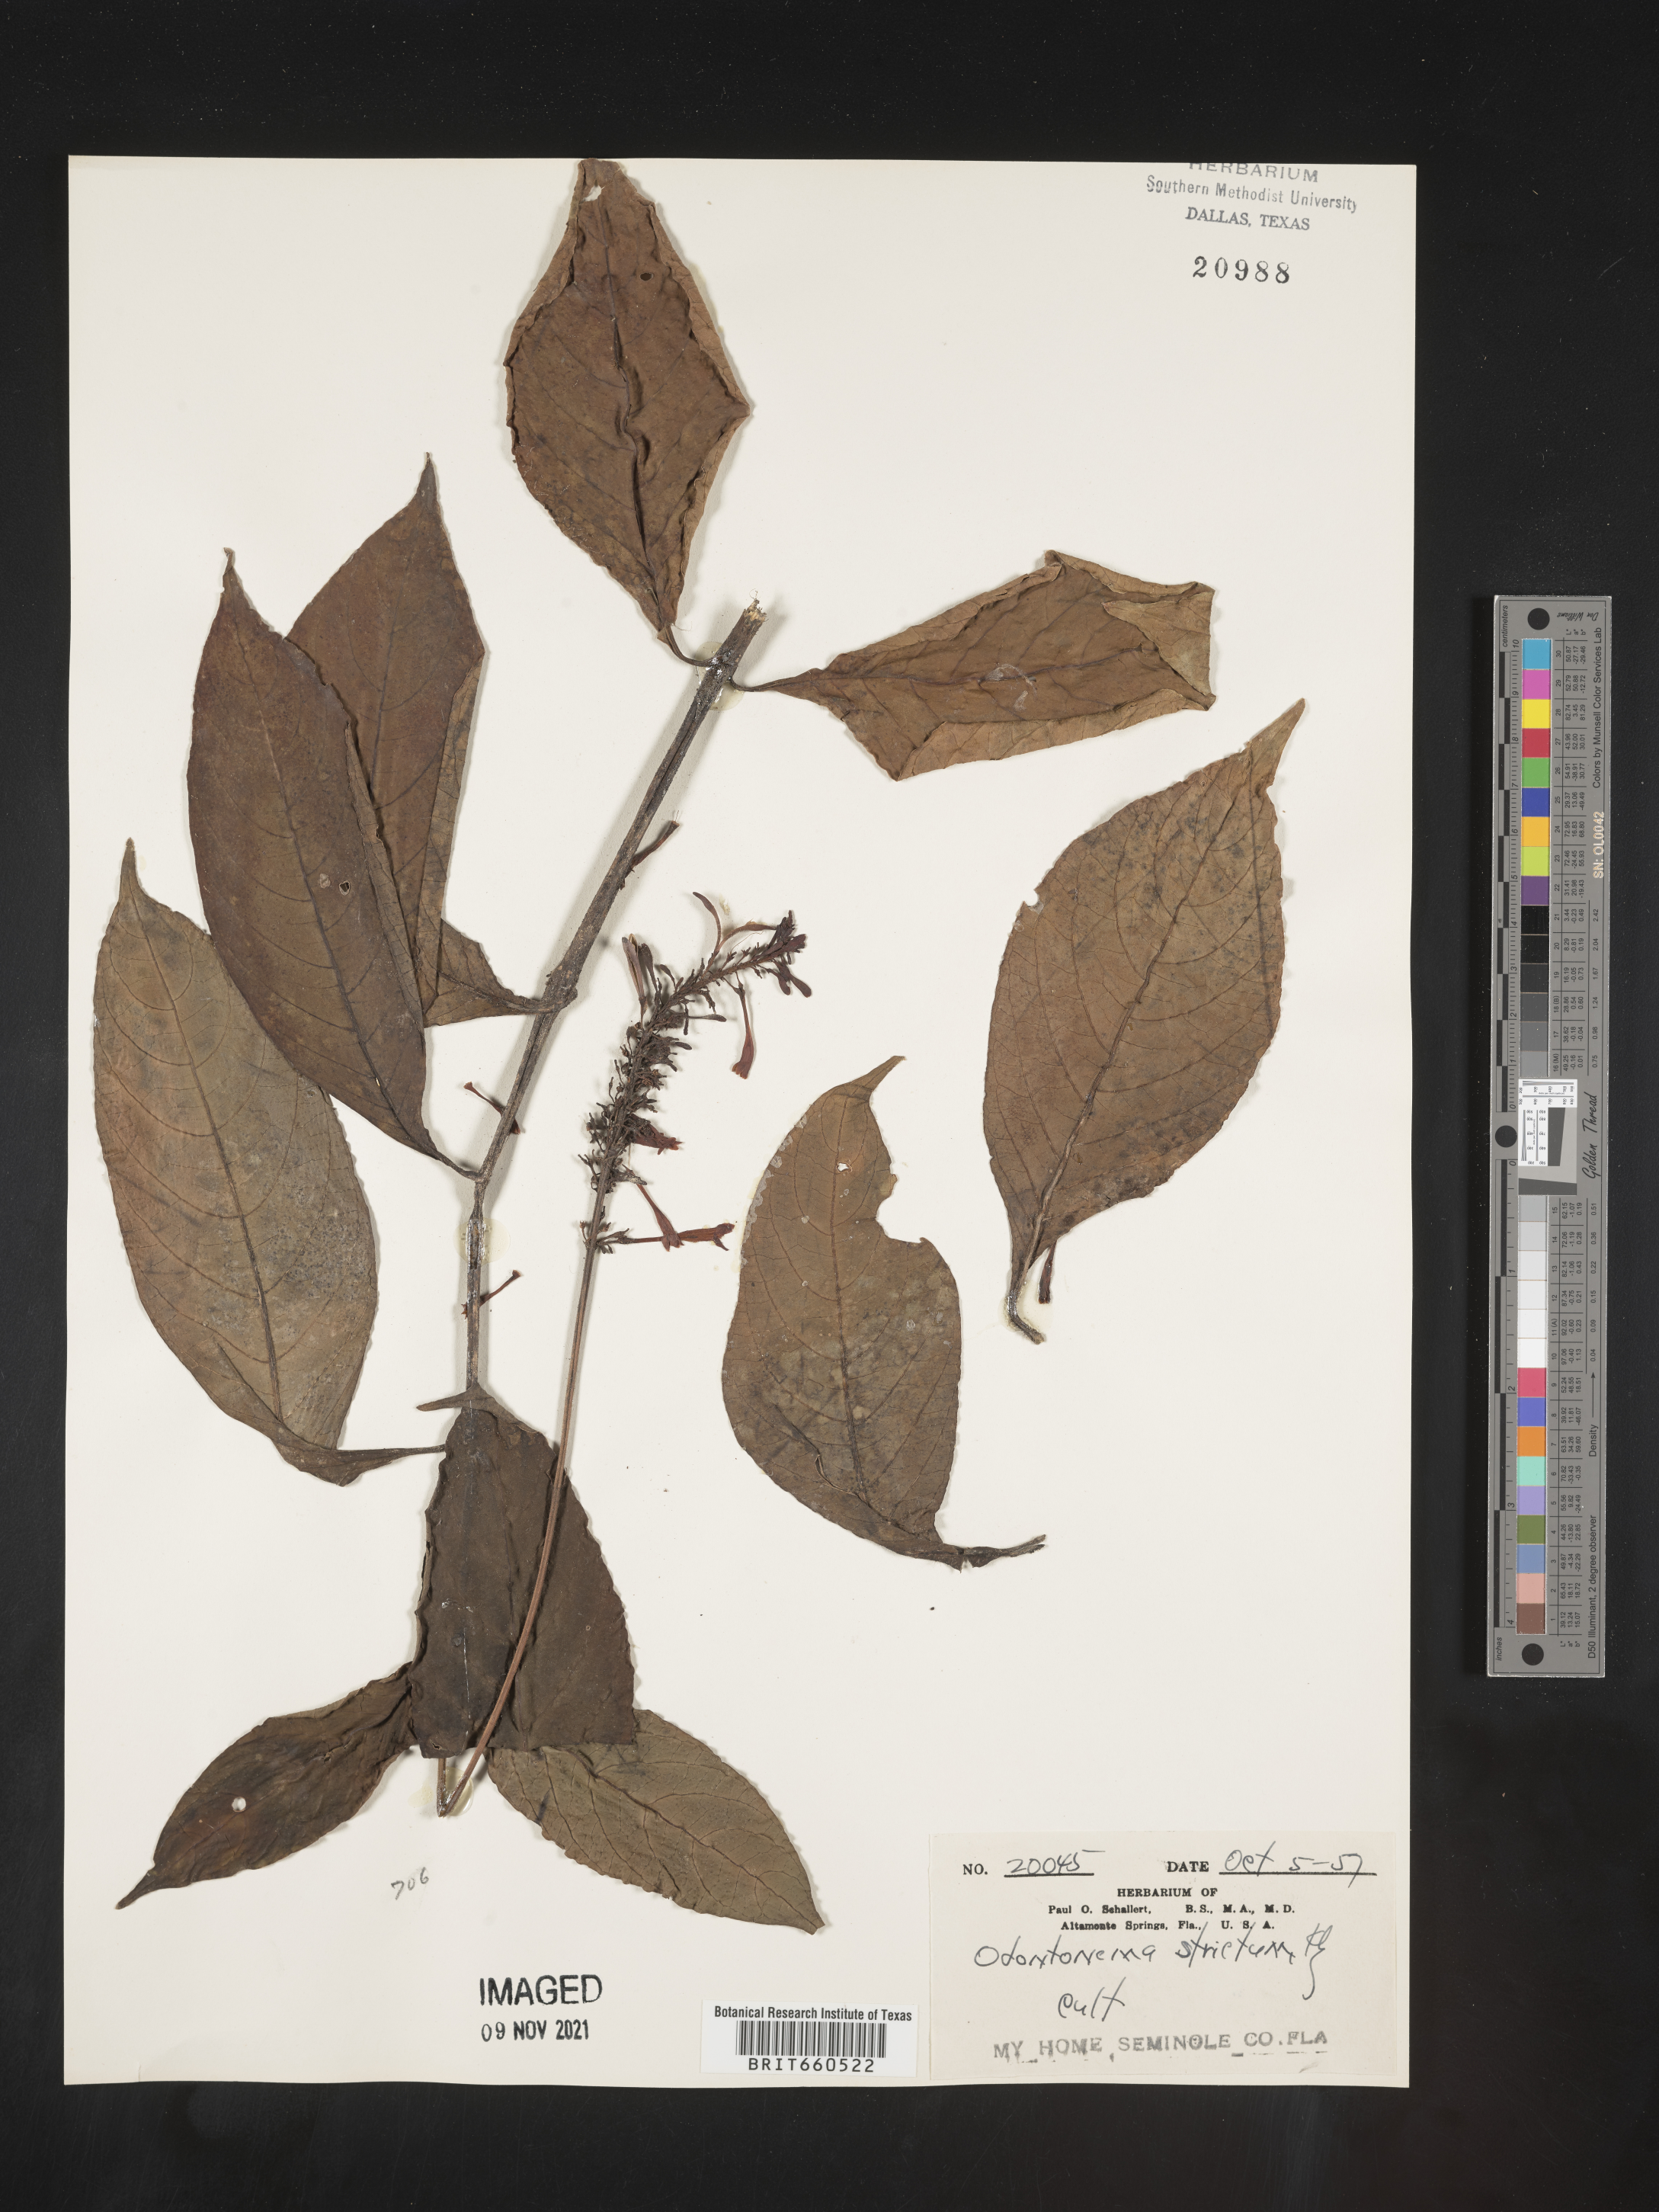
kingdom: Plantae
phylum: Tracheophyta
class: Magnoliopsida
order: Lamiales
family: Acanthaceae
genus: Odontonema
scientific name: Odontonema
